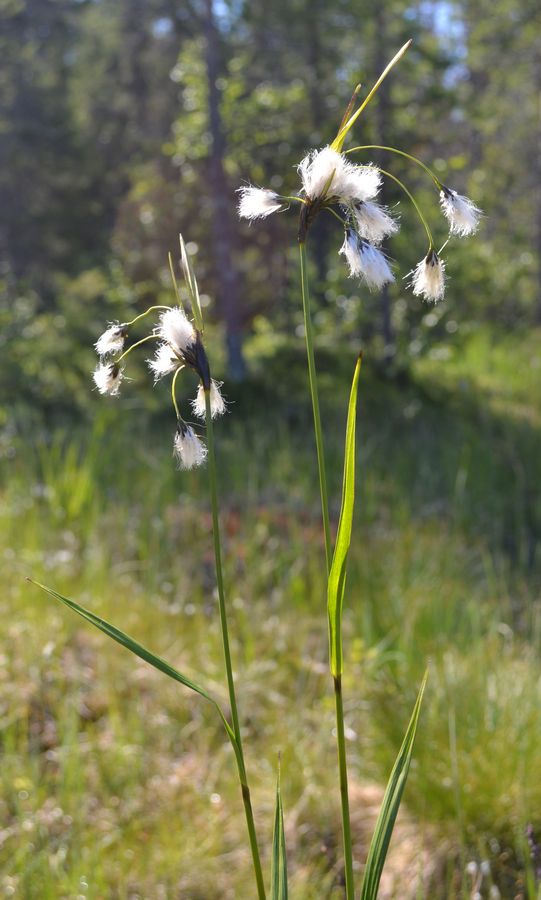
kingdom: Plantae
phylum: Tracheophyta
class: Liliopsida
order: Poales
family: Cyperaceae
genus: Eriophorum
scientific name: Eriophorum latifolium
